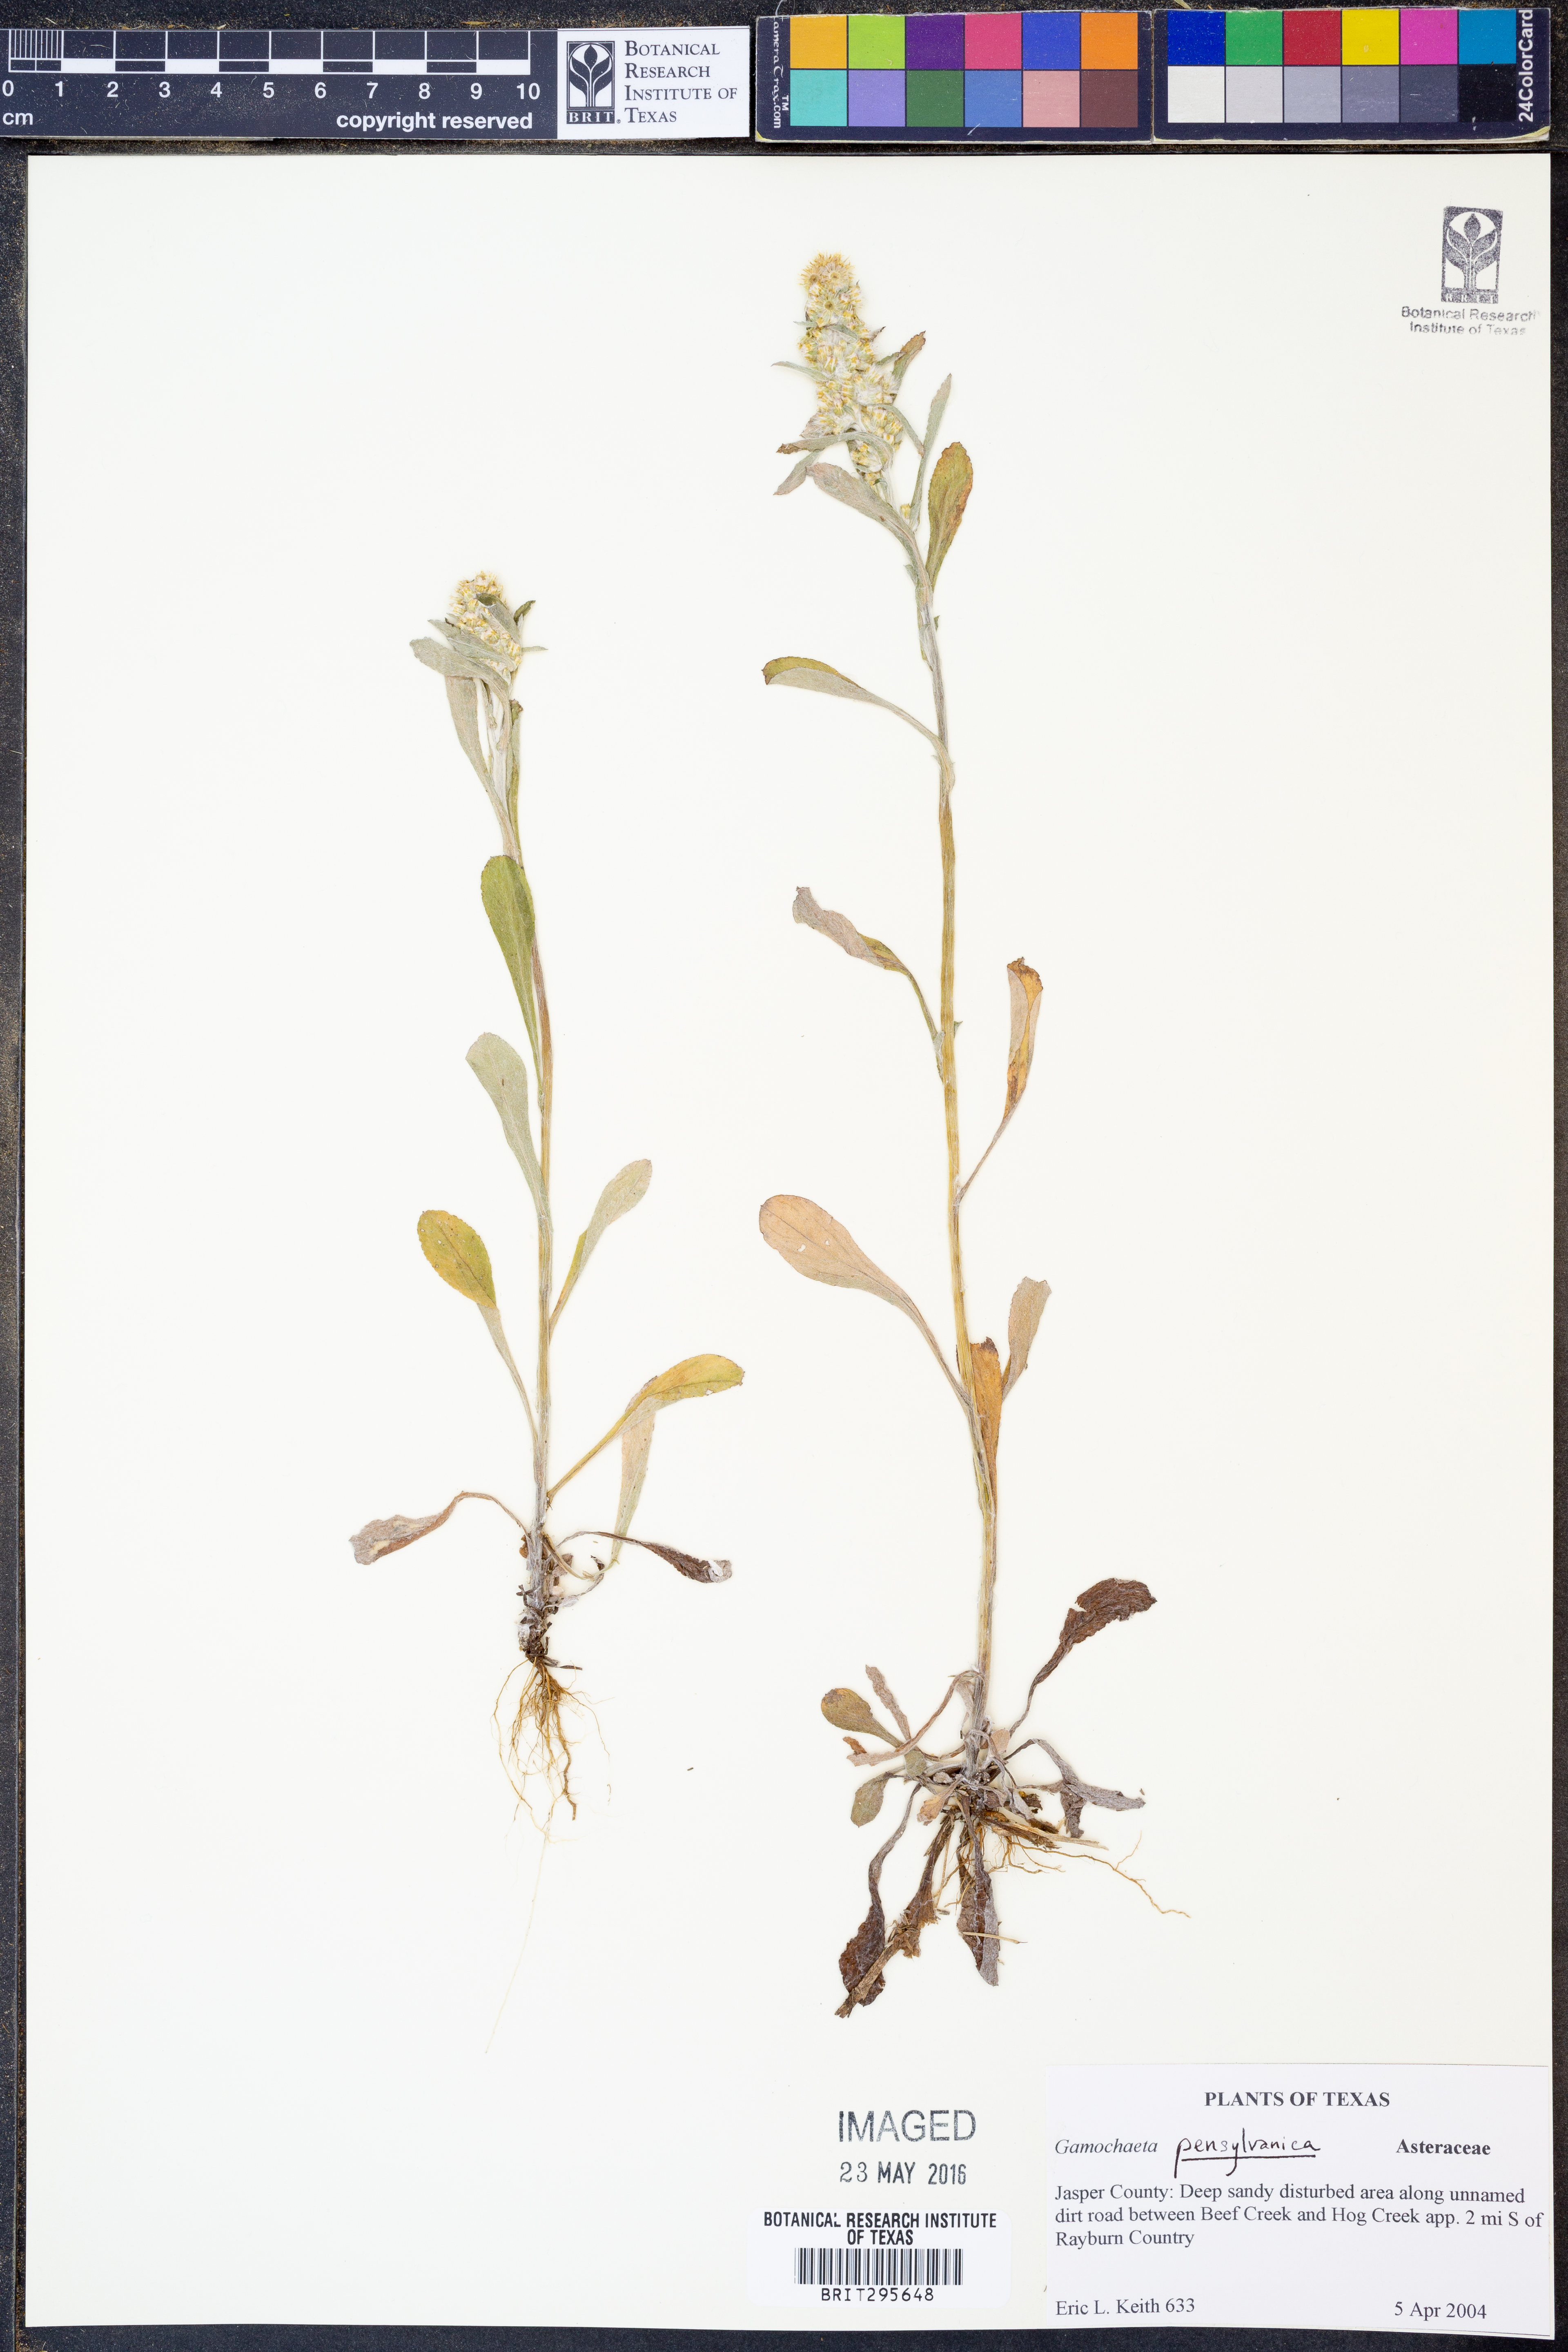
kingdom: Plantae
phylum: Tracheophyta
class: Magnoliopsida
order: Asterales
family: Asteraceae
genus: Gamochaeta
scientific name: Gamochaeta pensylvanica
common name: Pennsylvania everlasting
